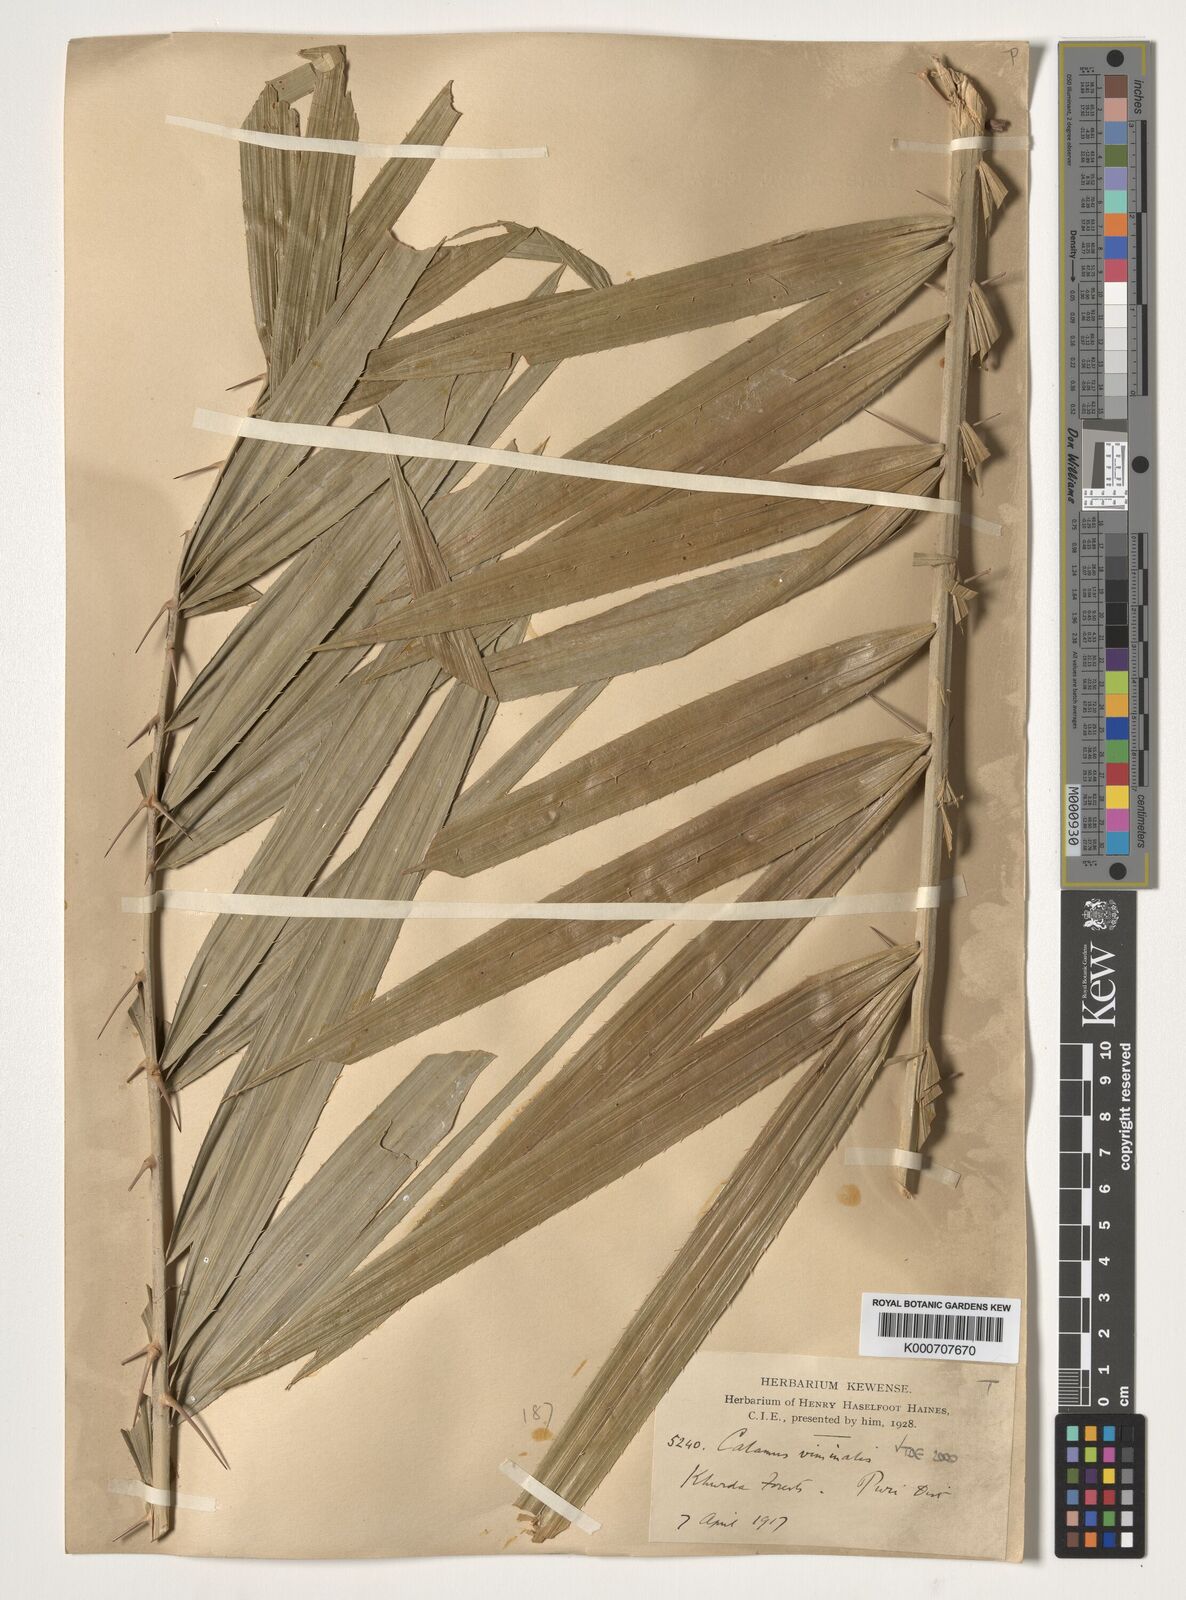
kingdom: Plantae
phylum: Tracheophyta
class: Liliopsida
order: Arecales
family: Arecaceae
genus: Calamus
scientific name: Calamus viminalis
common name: Osier-like rattan palm
